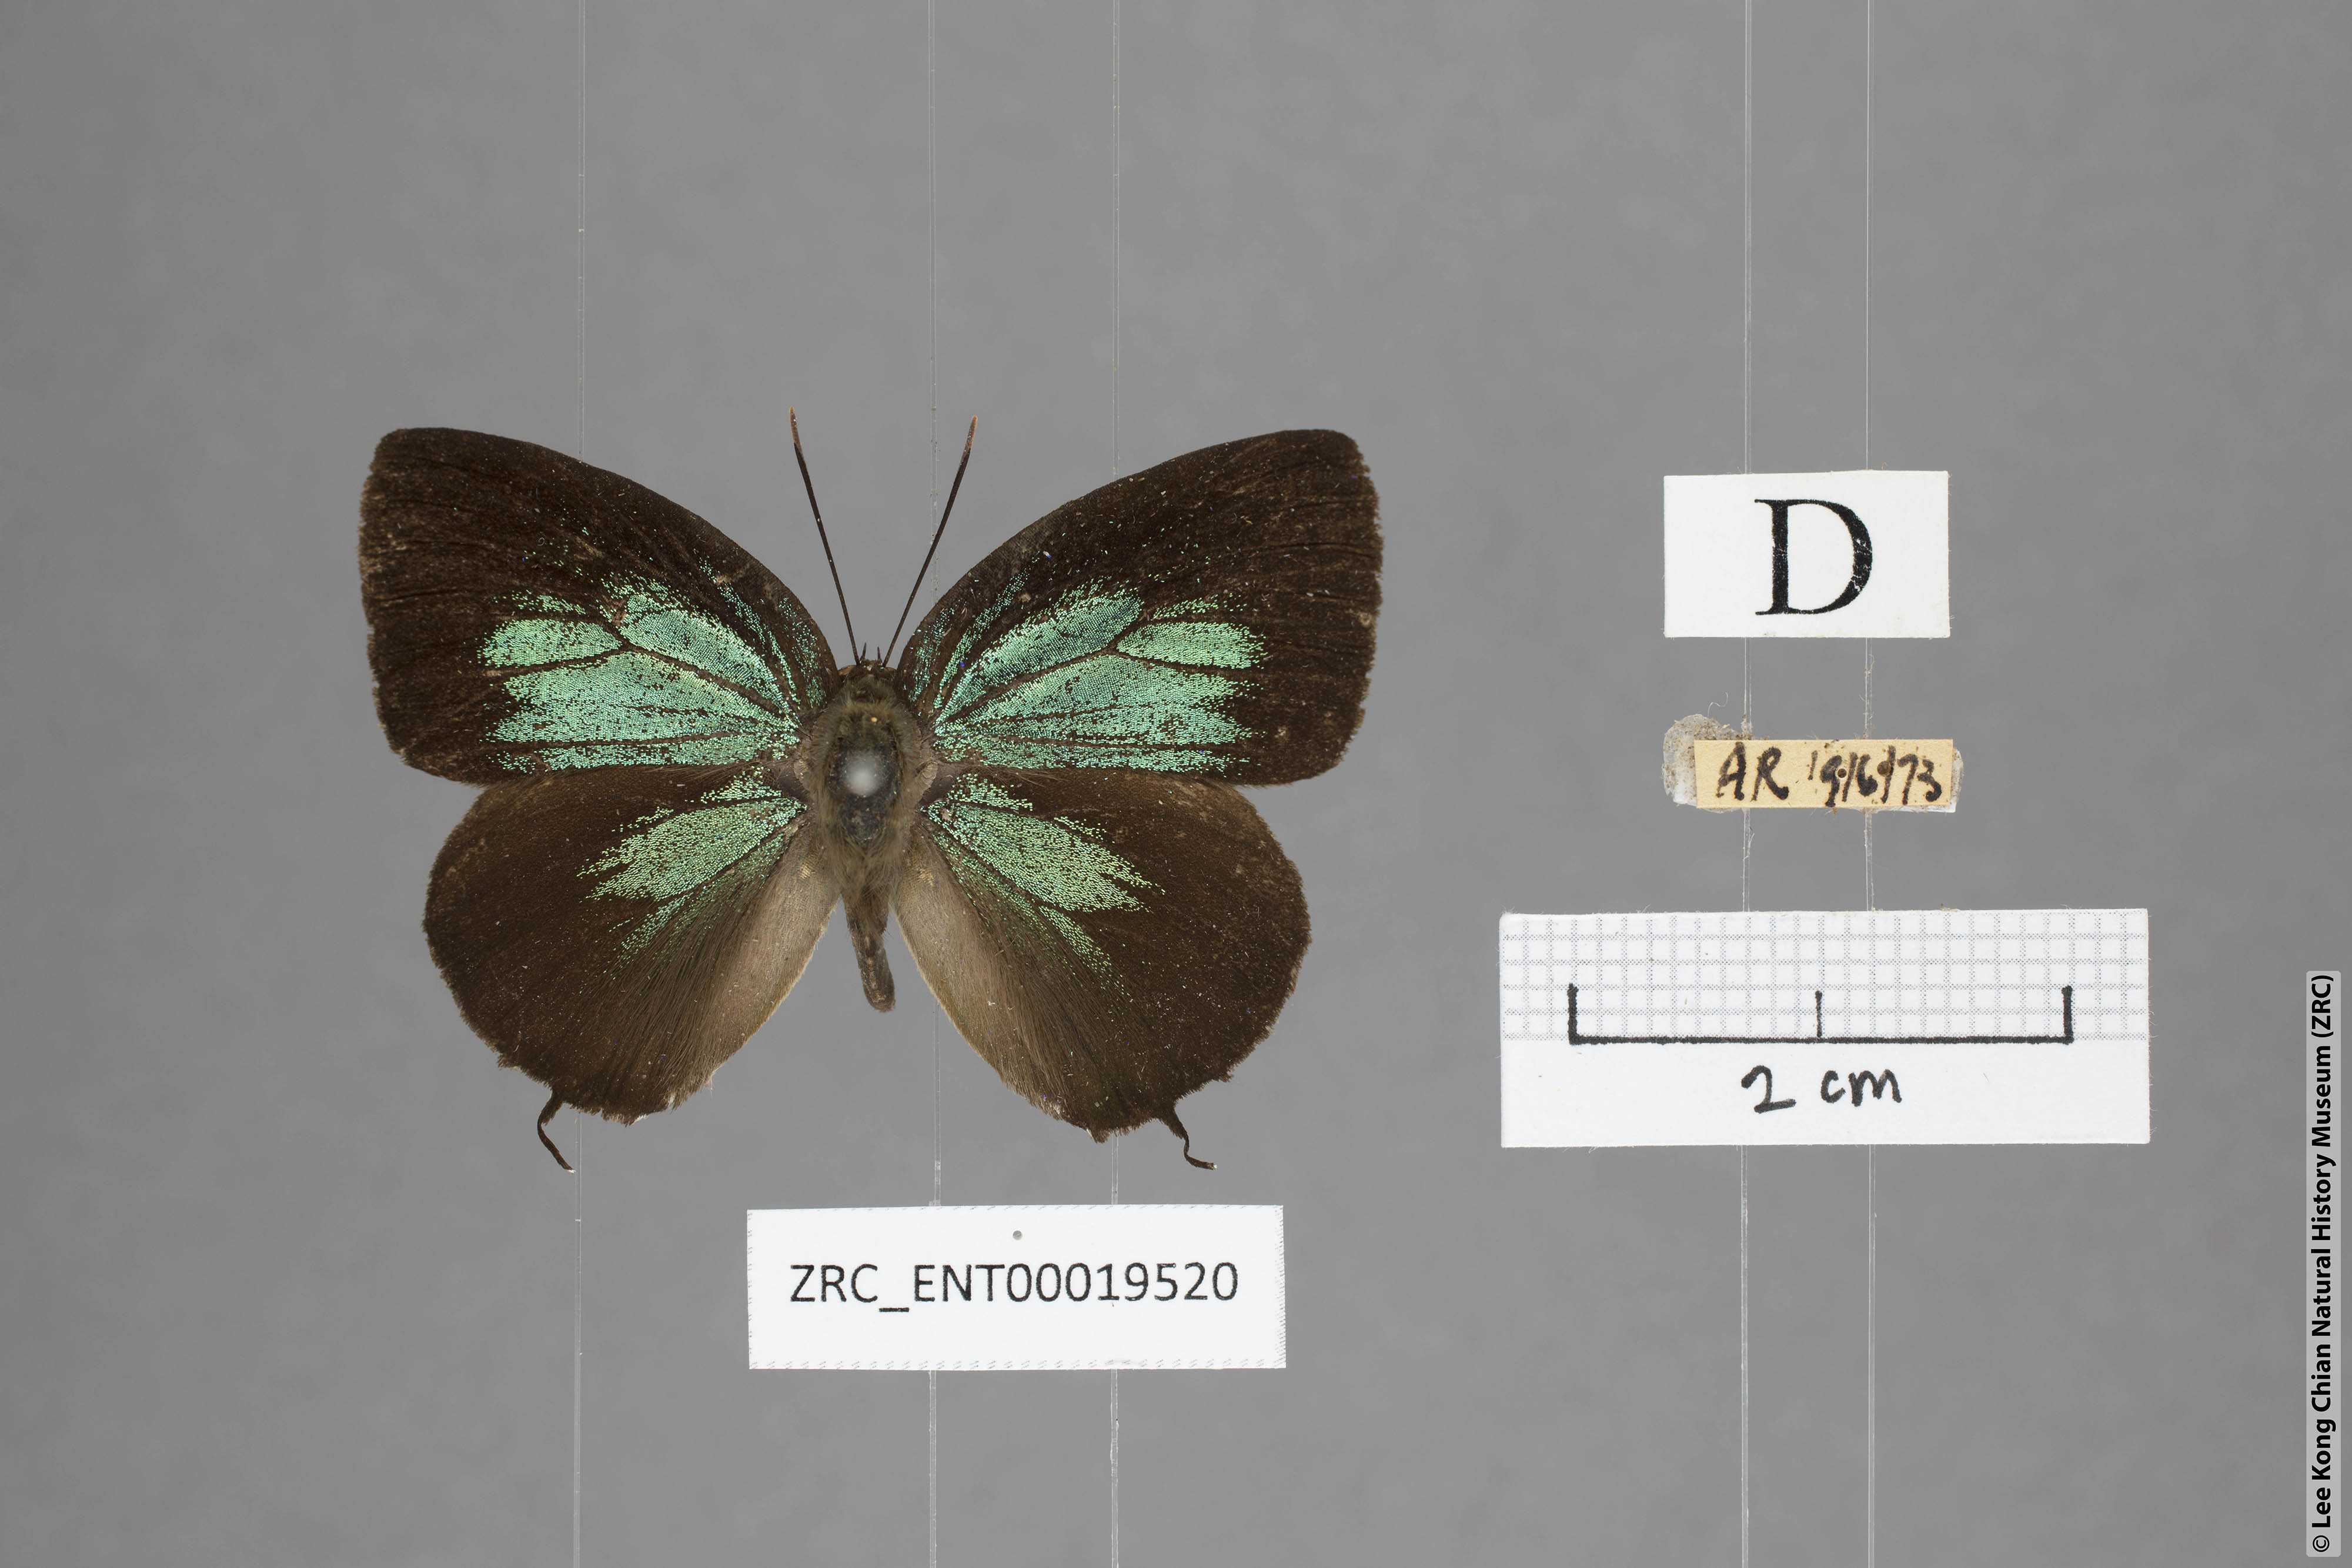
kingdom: Animalia
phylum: Arthropoda
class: Insecta
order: Lepidoptera
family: Lycaenidae
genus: Arhopala
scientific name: Arhopala horsfieldi
